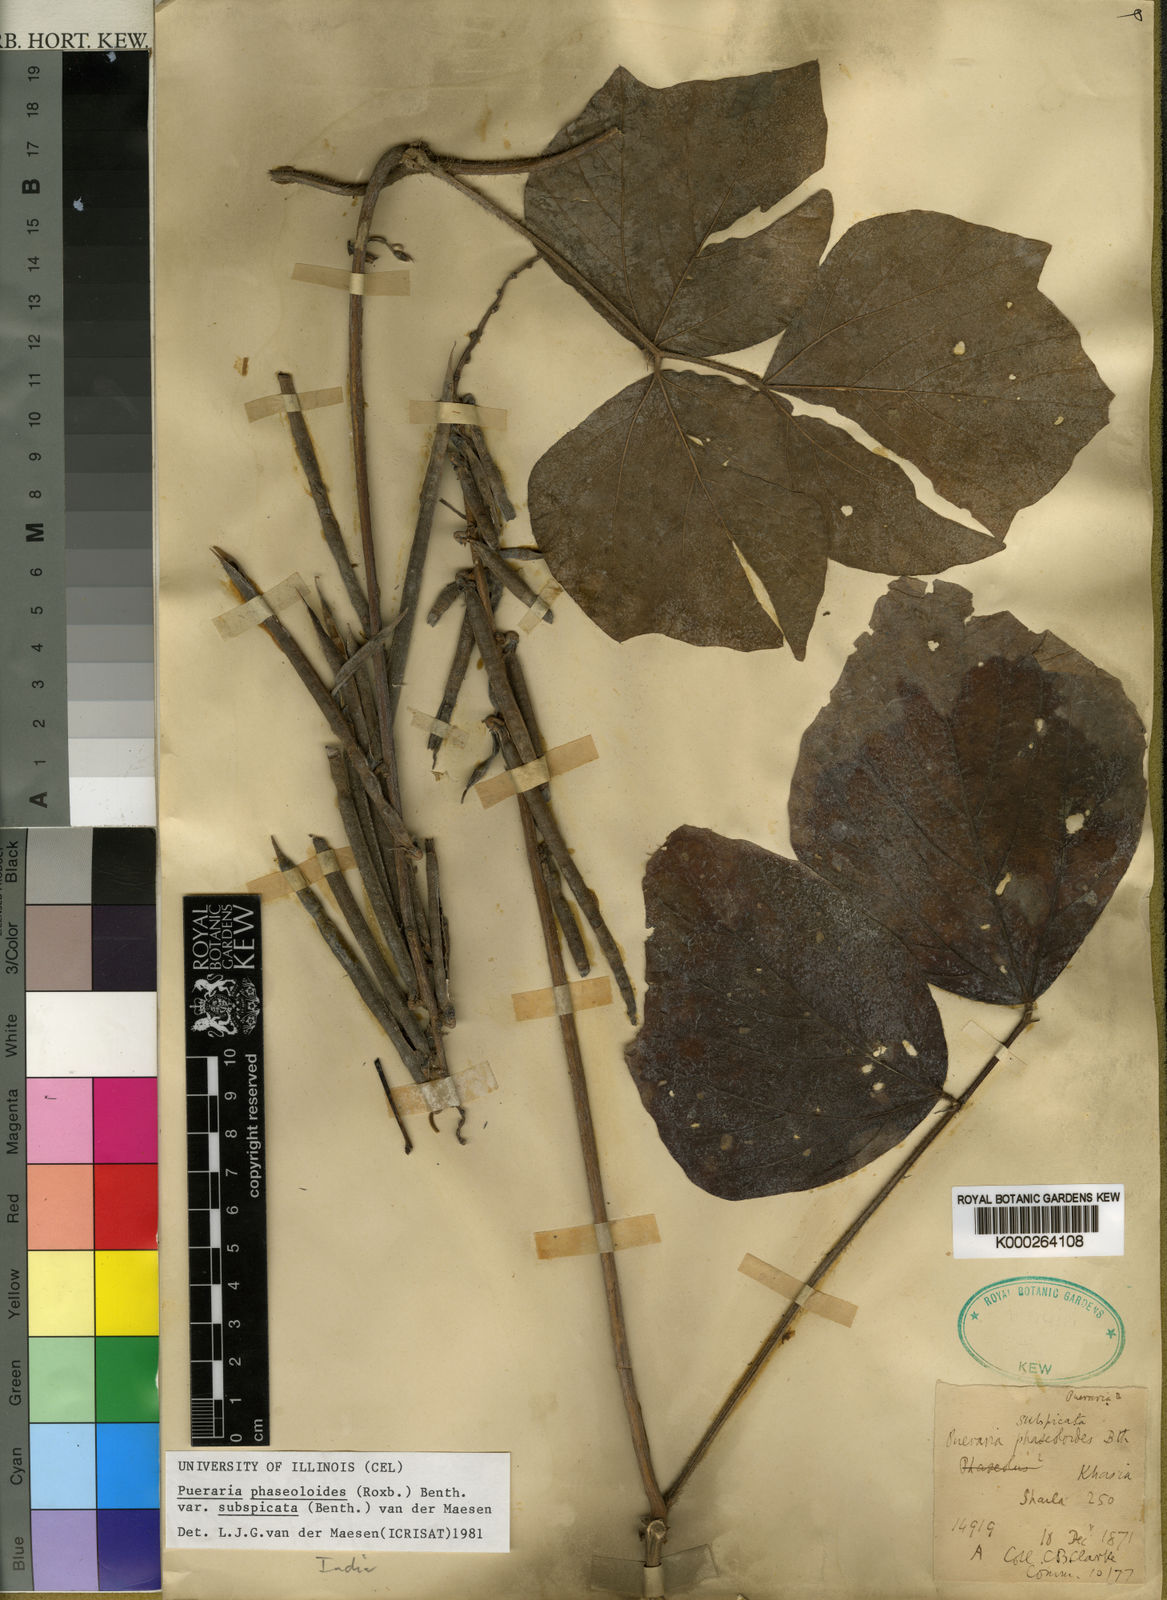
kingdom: Plantae
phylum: Tracheophyta
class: Magnoliopsida
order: Fabales
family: Fabaceae
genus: Neustanthus
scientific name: Neustanthus phaseoloides
